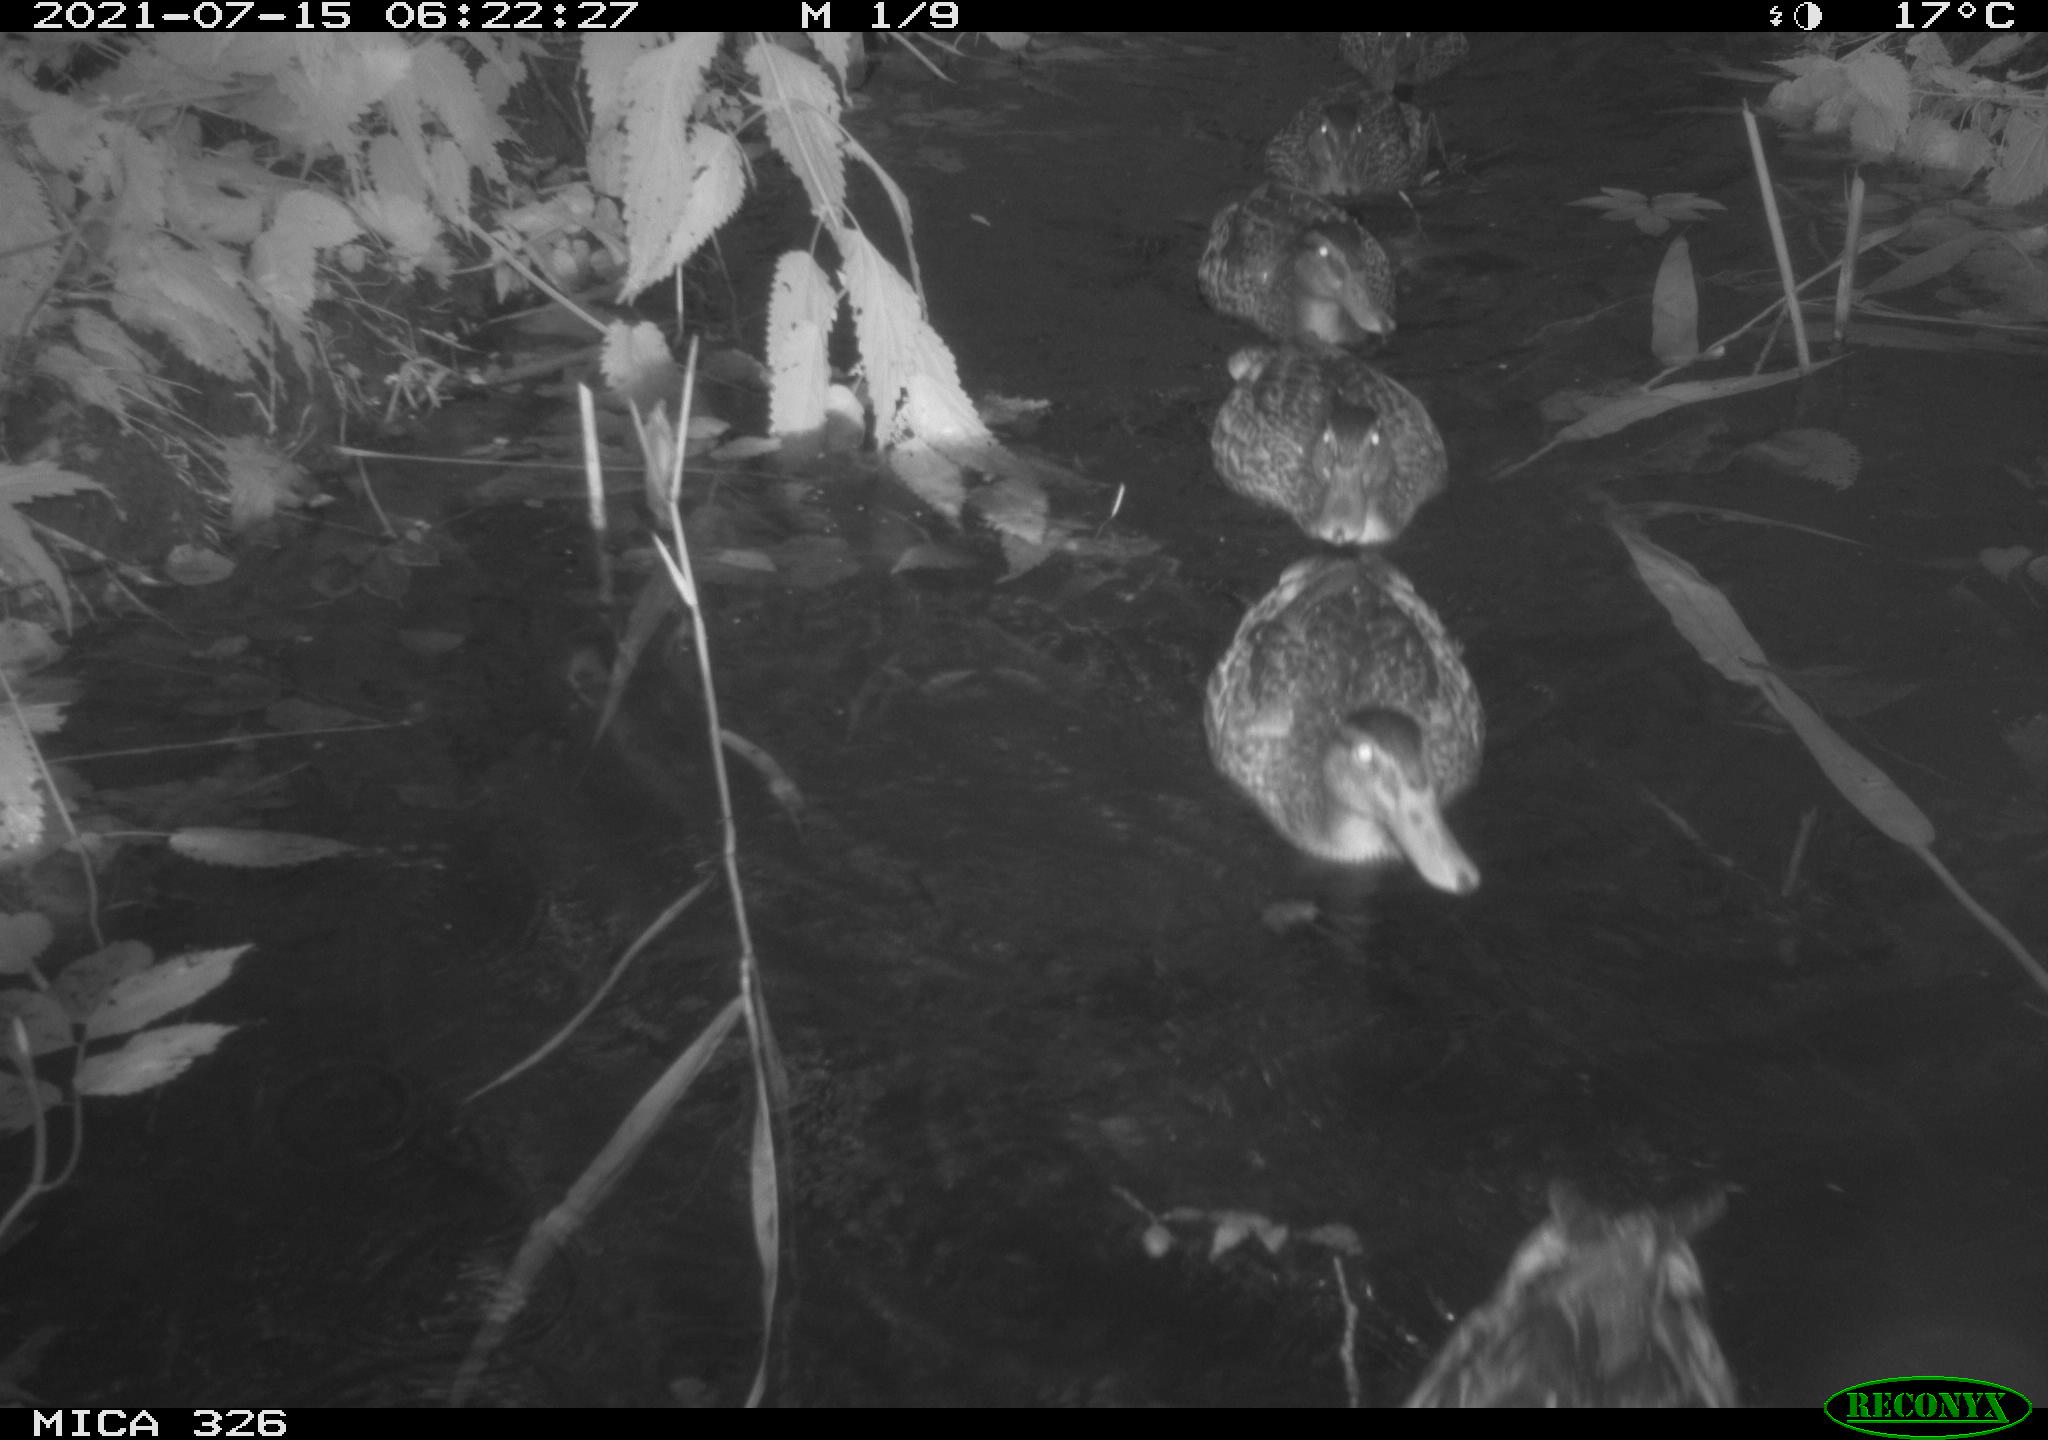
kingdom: Animalia
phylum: Chordata
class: Aves
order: Anseriformes
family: Anatidae
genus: Anas
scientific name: Anas platyrhynchos
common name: Mallard
